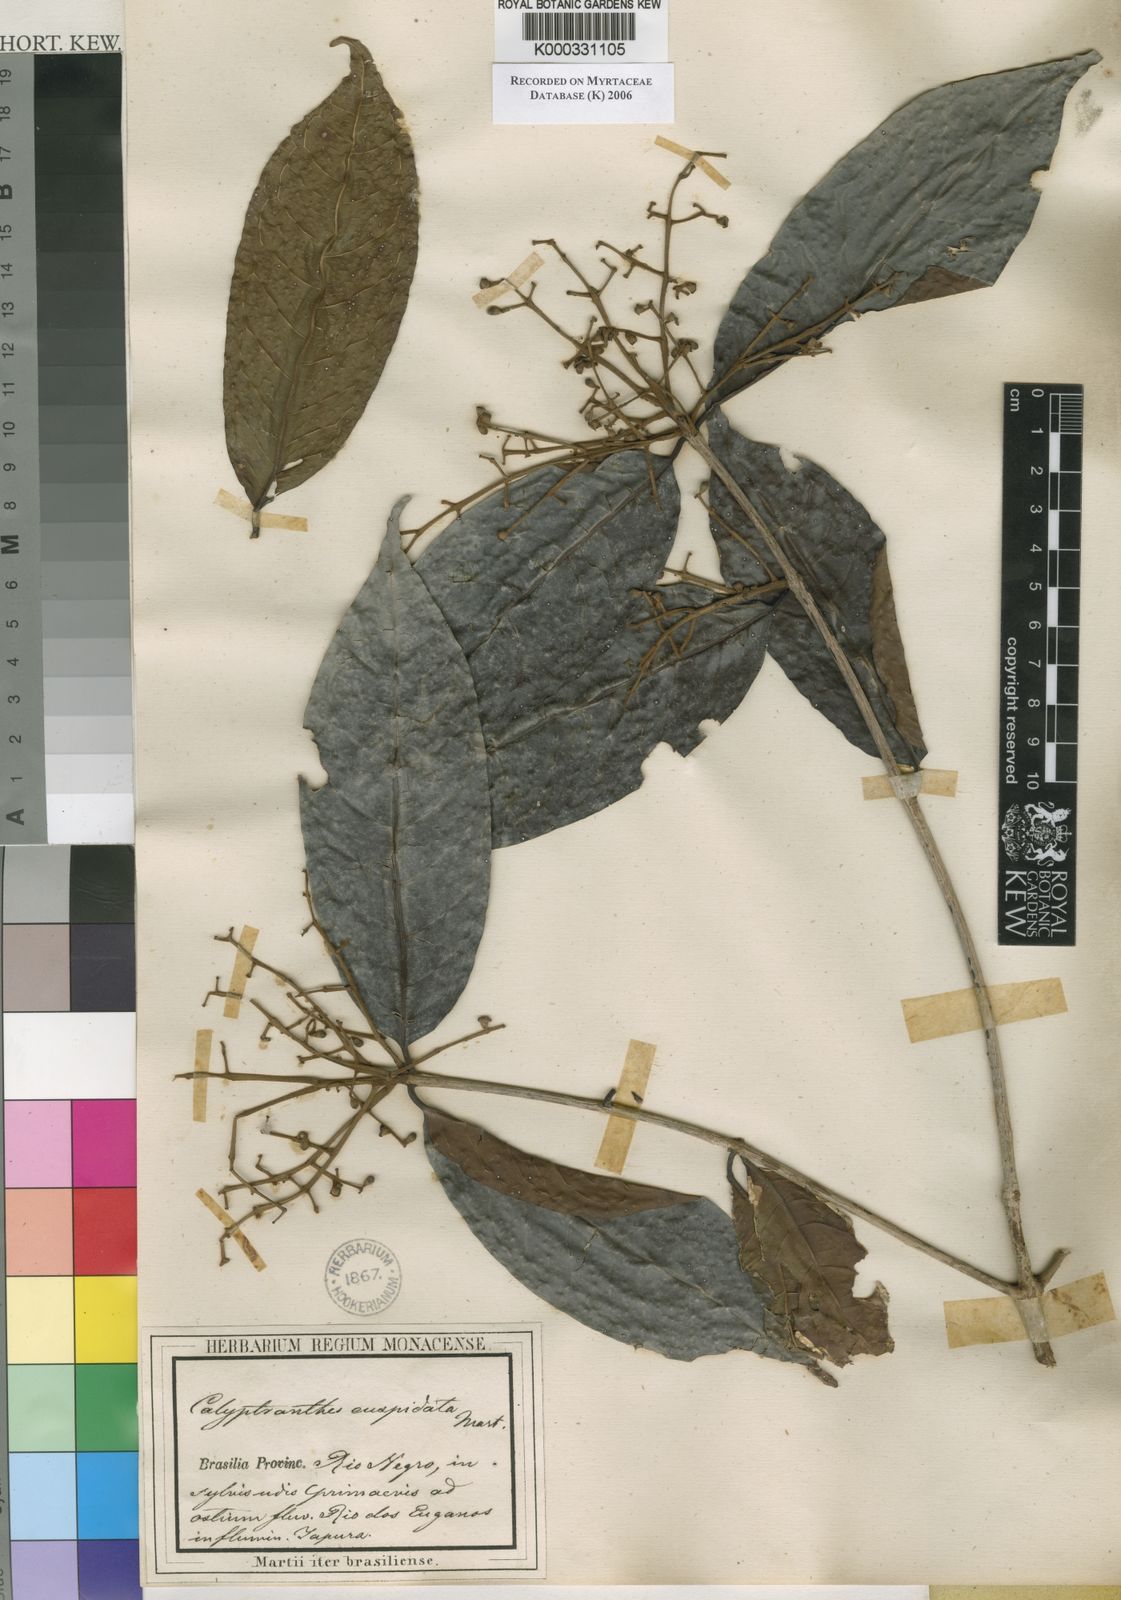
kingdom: Plantae
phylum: Tracheophyta
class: Magnoliopsida
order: Myrtales
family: Myrtaceae
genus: Myrcia
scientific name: Myrcia cuspidata
